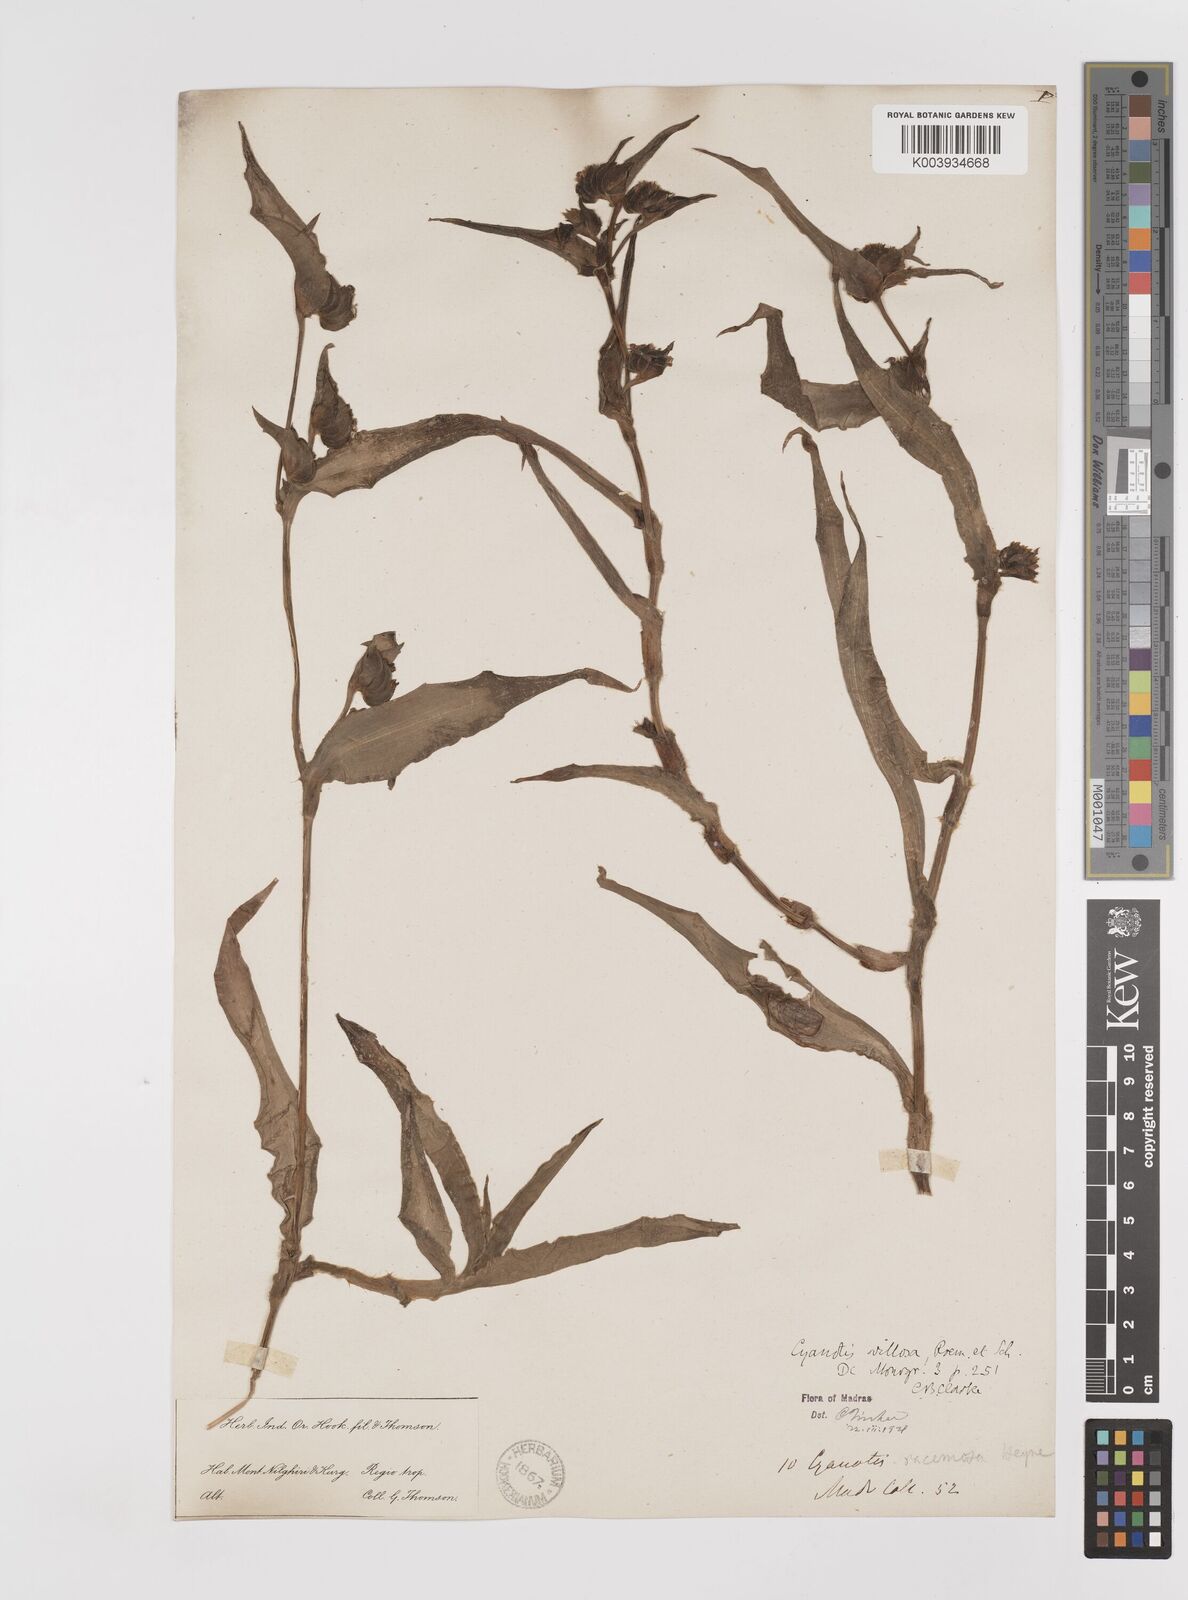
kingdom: Plantae
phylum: Tracheophyta
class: Liliopsida
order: Commelinales
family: Commelinaceae
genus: Cyanotis
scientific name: Cyanotis villosa
